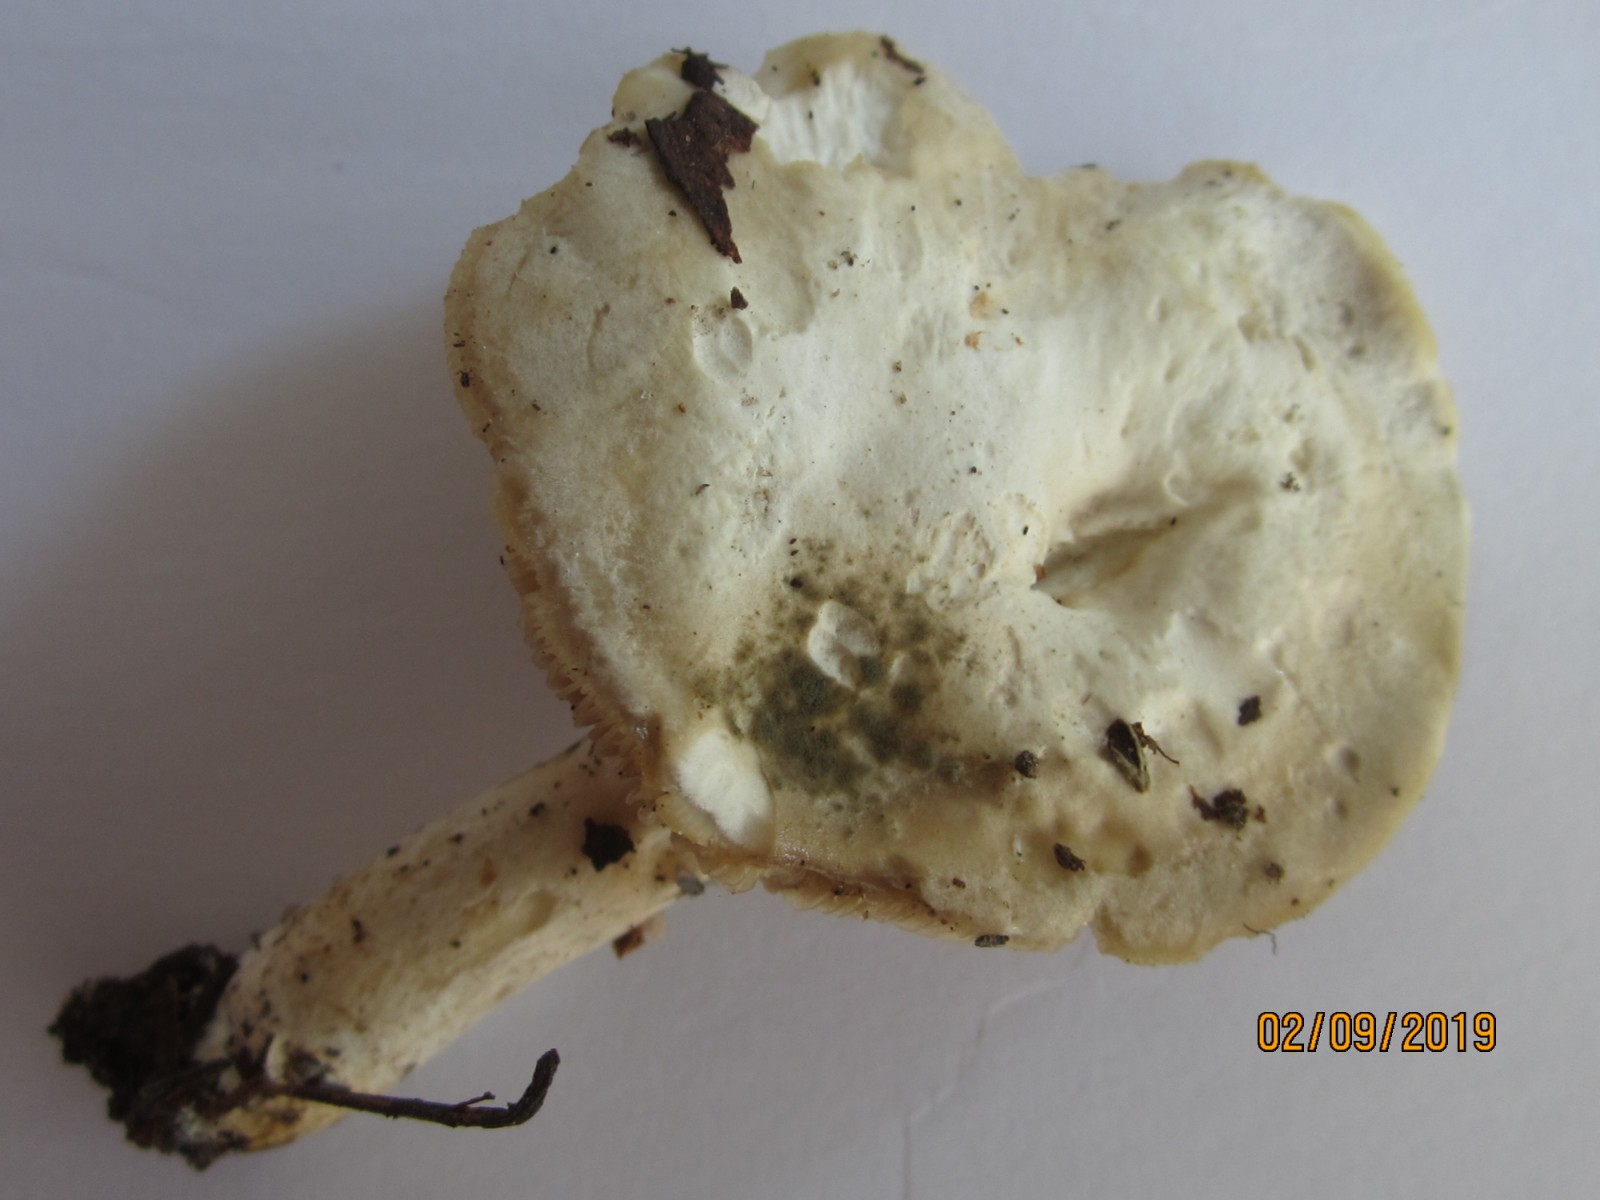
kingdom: Fungi
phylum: Basidiomycota
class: Agaricomycetes
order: Agaricales
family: Entolomataceae
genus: Clitopilus
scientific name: Clitopilus
